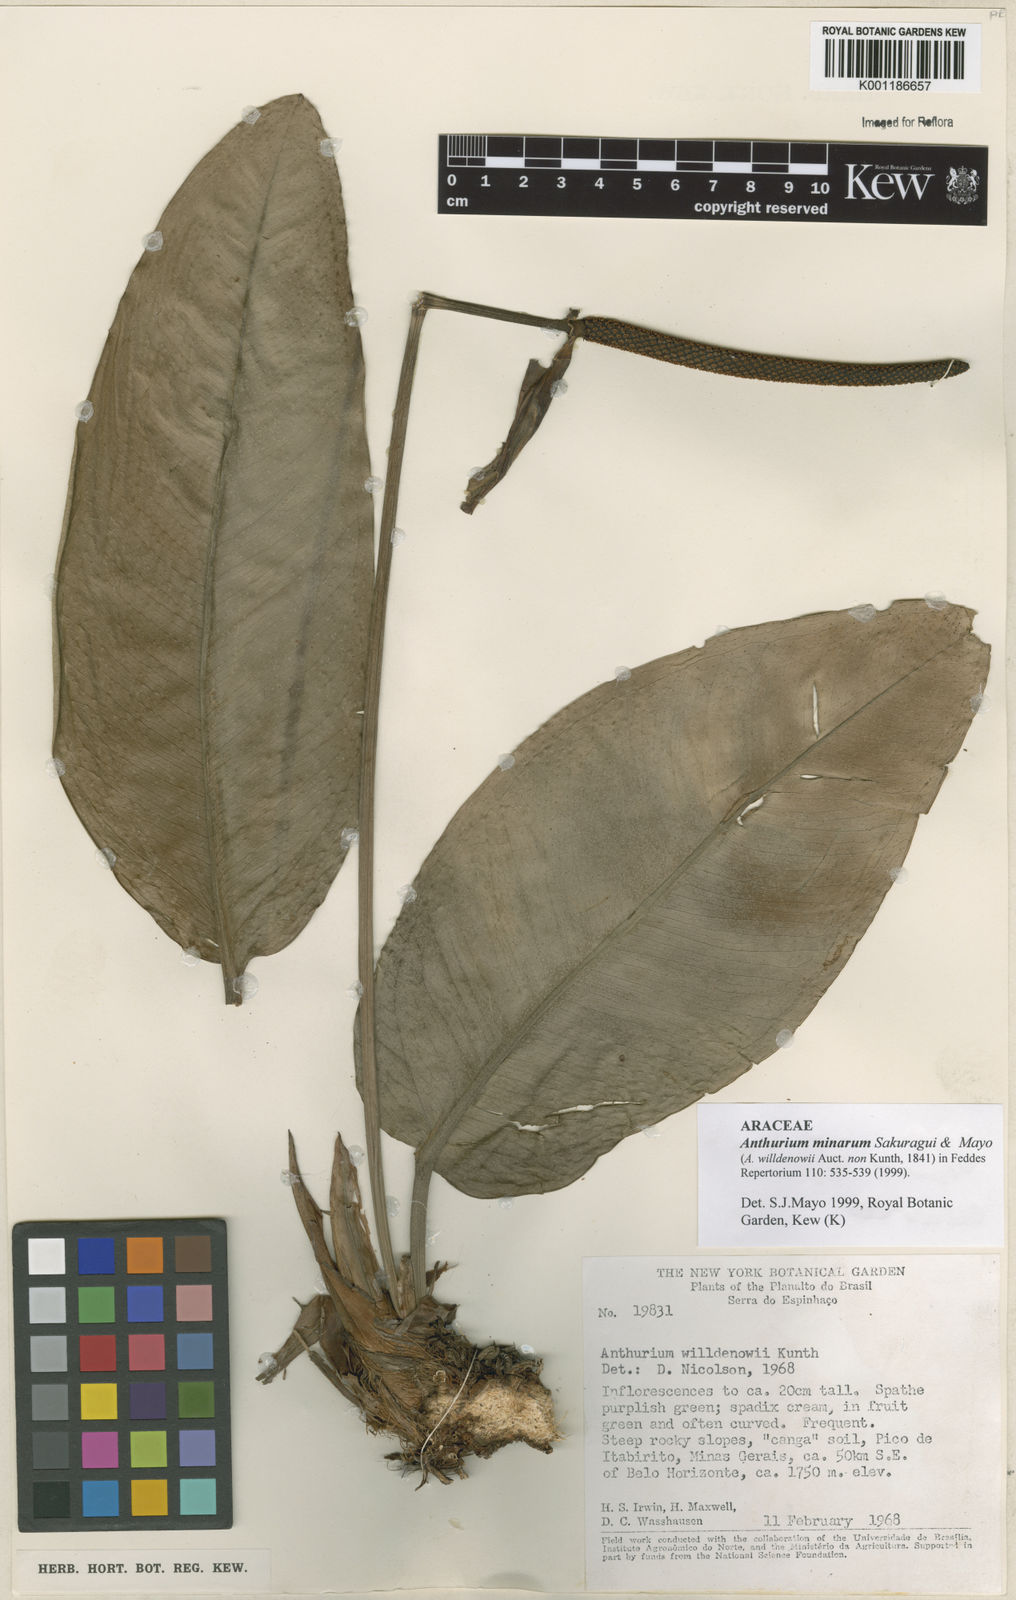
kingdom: Plantae
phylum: Tracheophyta
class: Liliopsida
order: Alismatales
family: Araceae
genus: Anthurium
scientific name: Anthurium minarum
